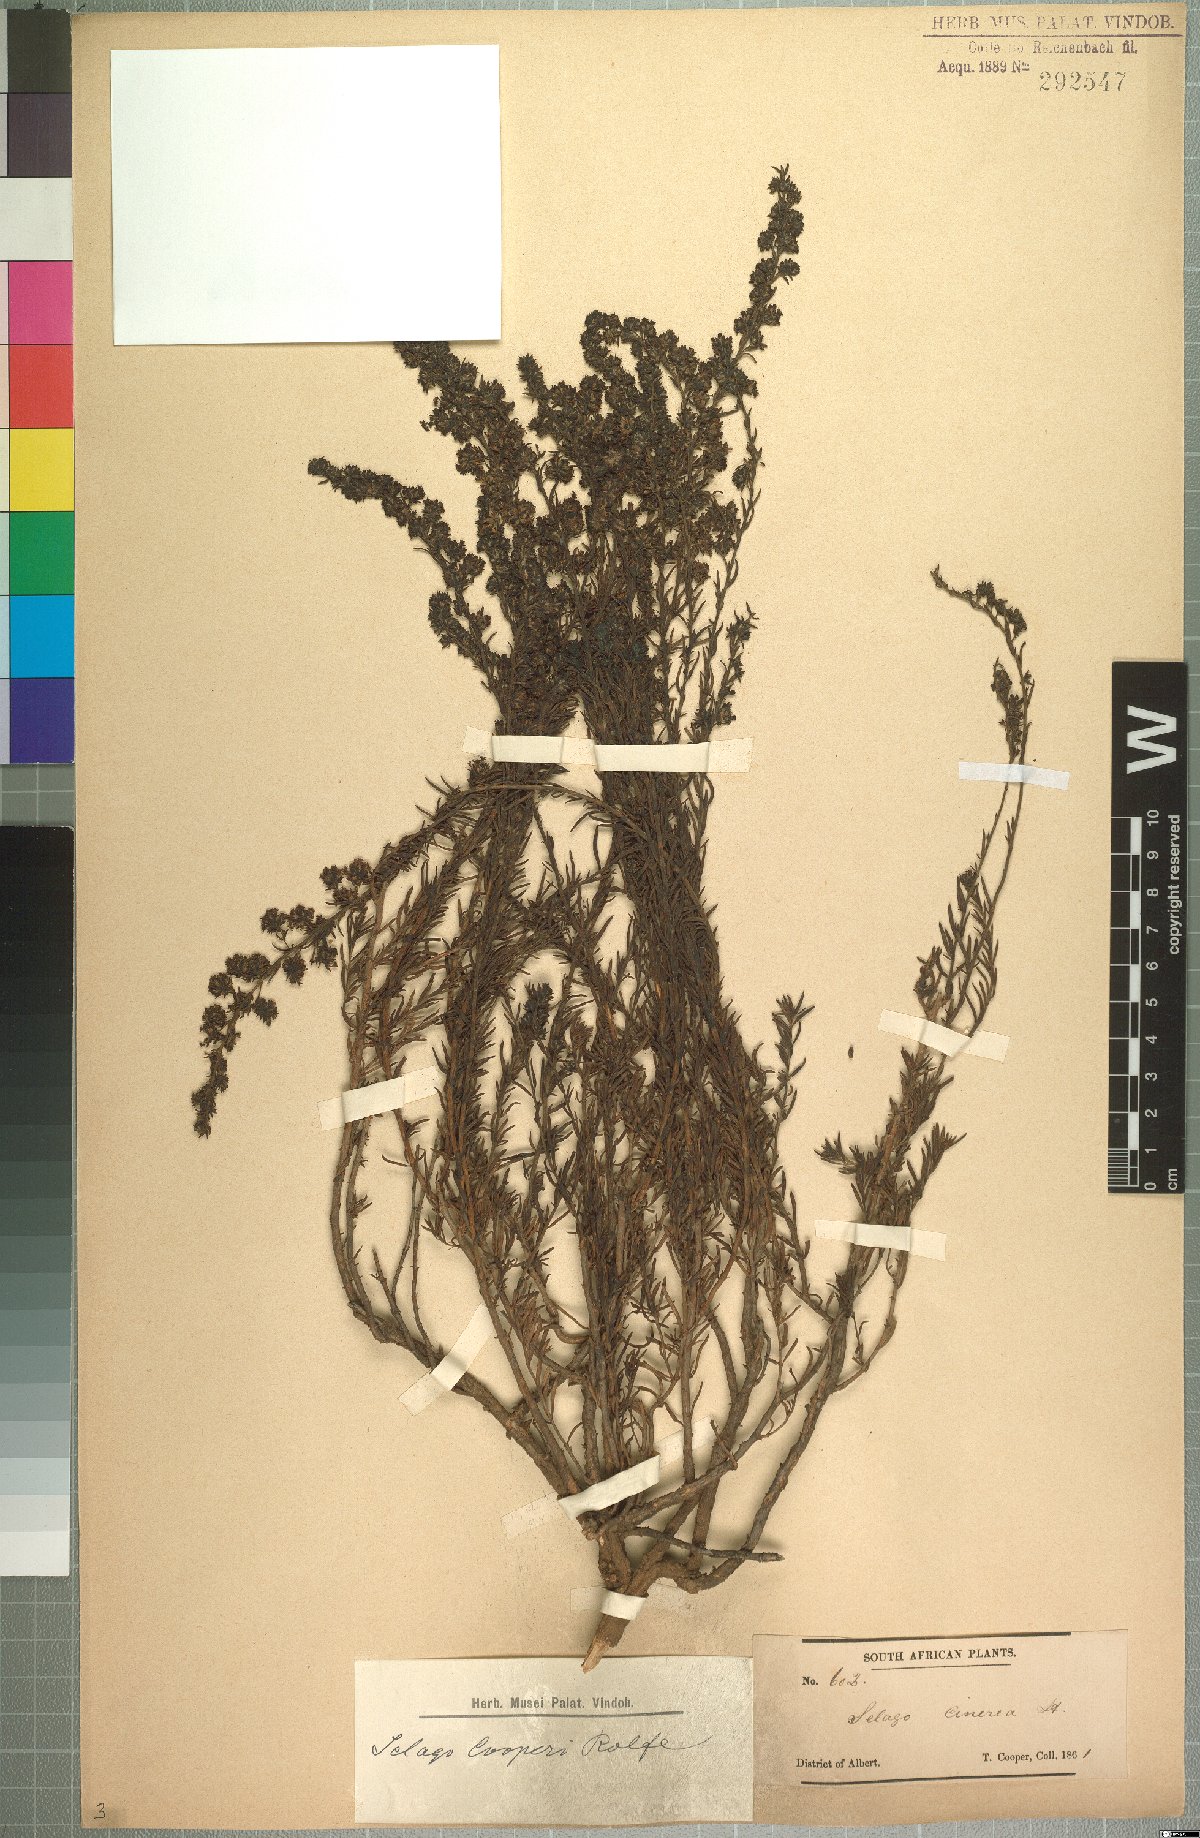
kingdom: Plantae
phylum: Tracheophyta
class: Magnoliopsida
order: Lamiales
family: Scrophulariaceae
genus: Selago
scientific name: Selago galpinii
